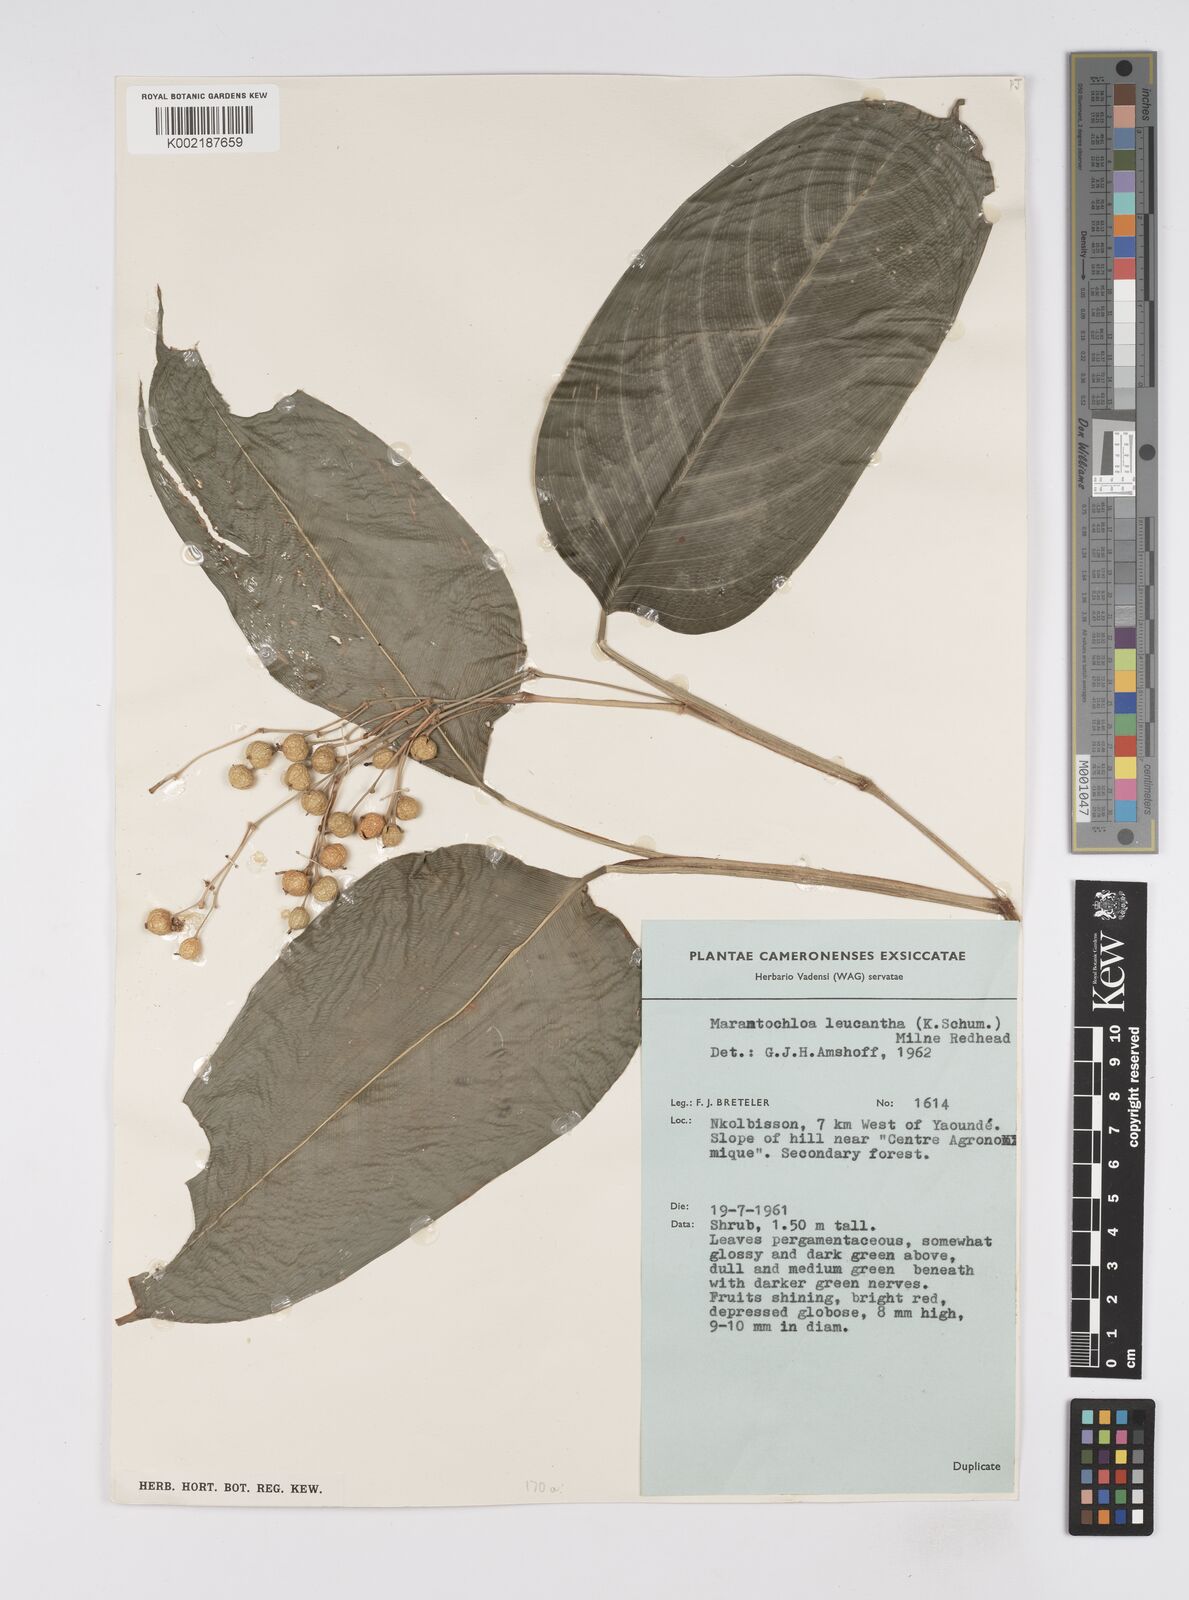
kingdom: Plantae
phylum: Tracheophyta
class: Liliopsida
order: Zingiberales
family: Marantaceae
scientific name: Marantaceae
